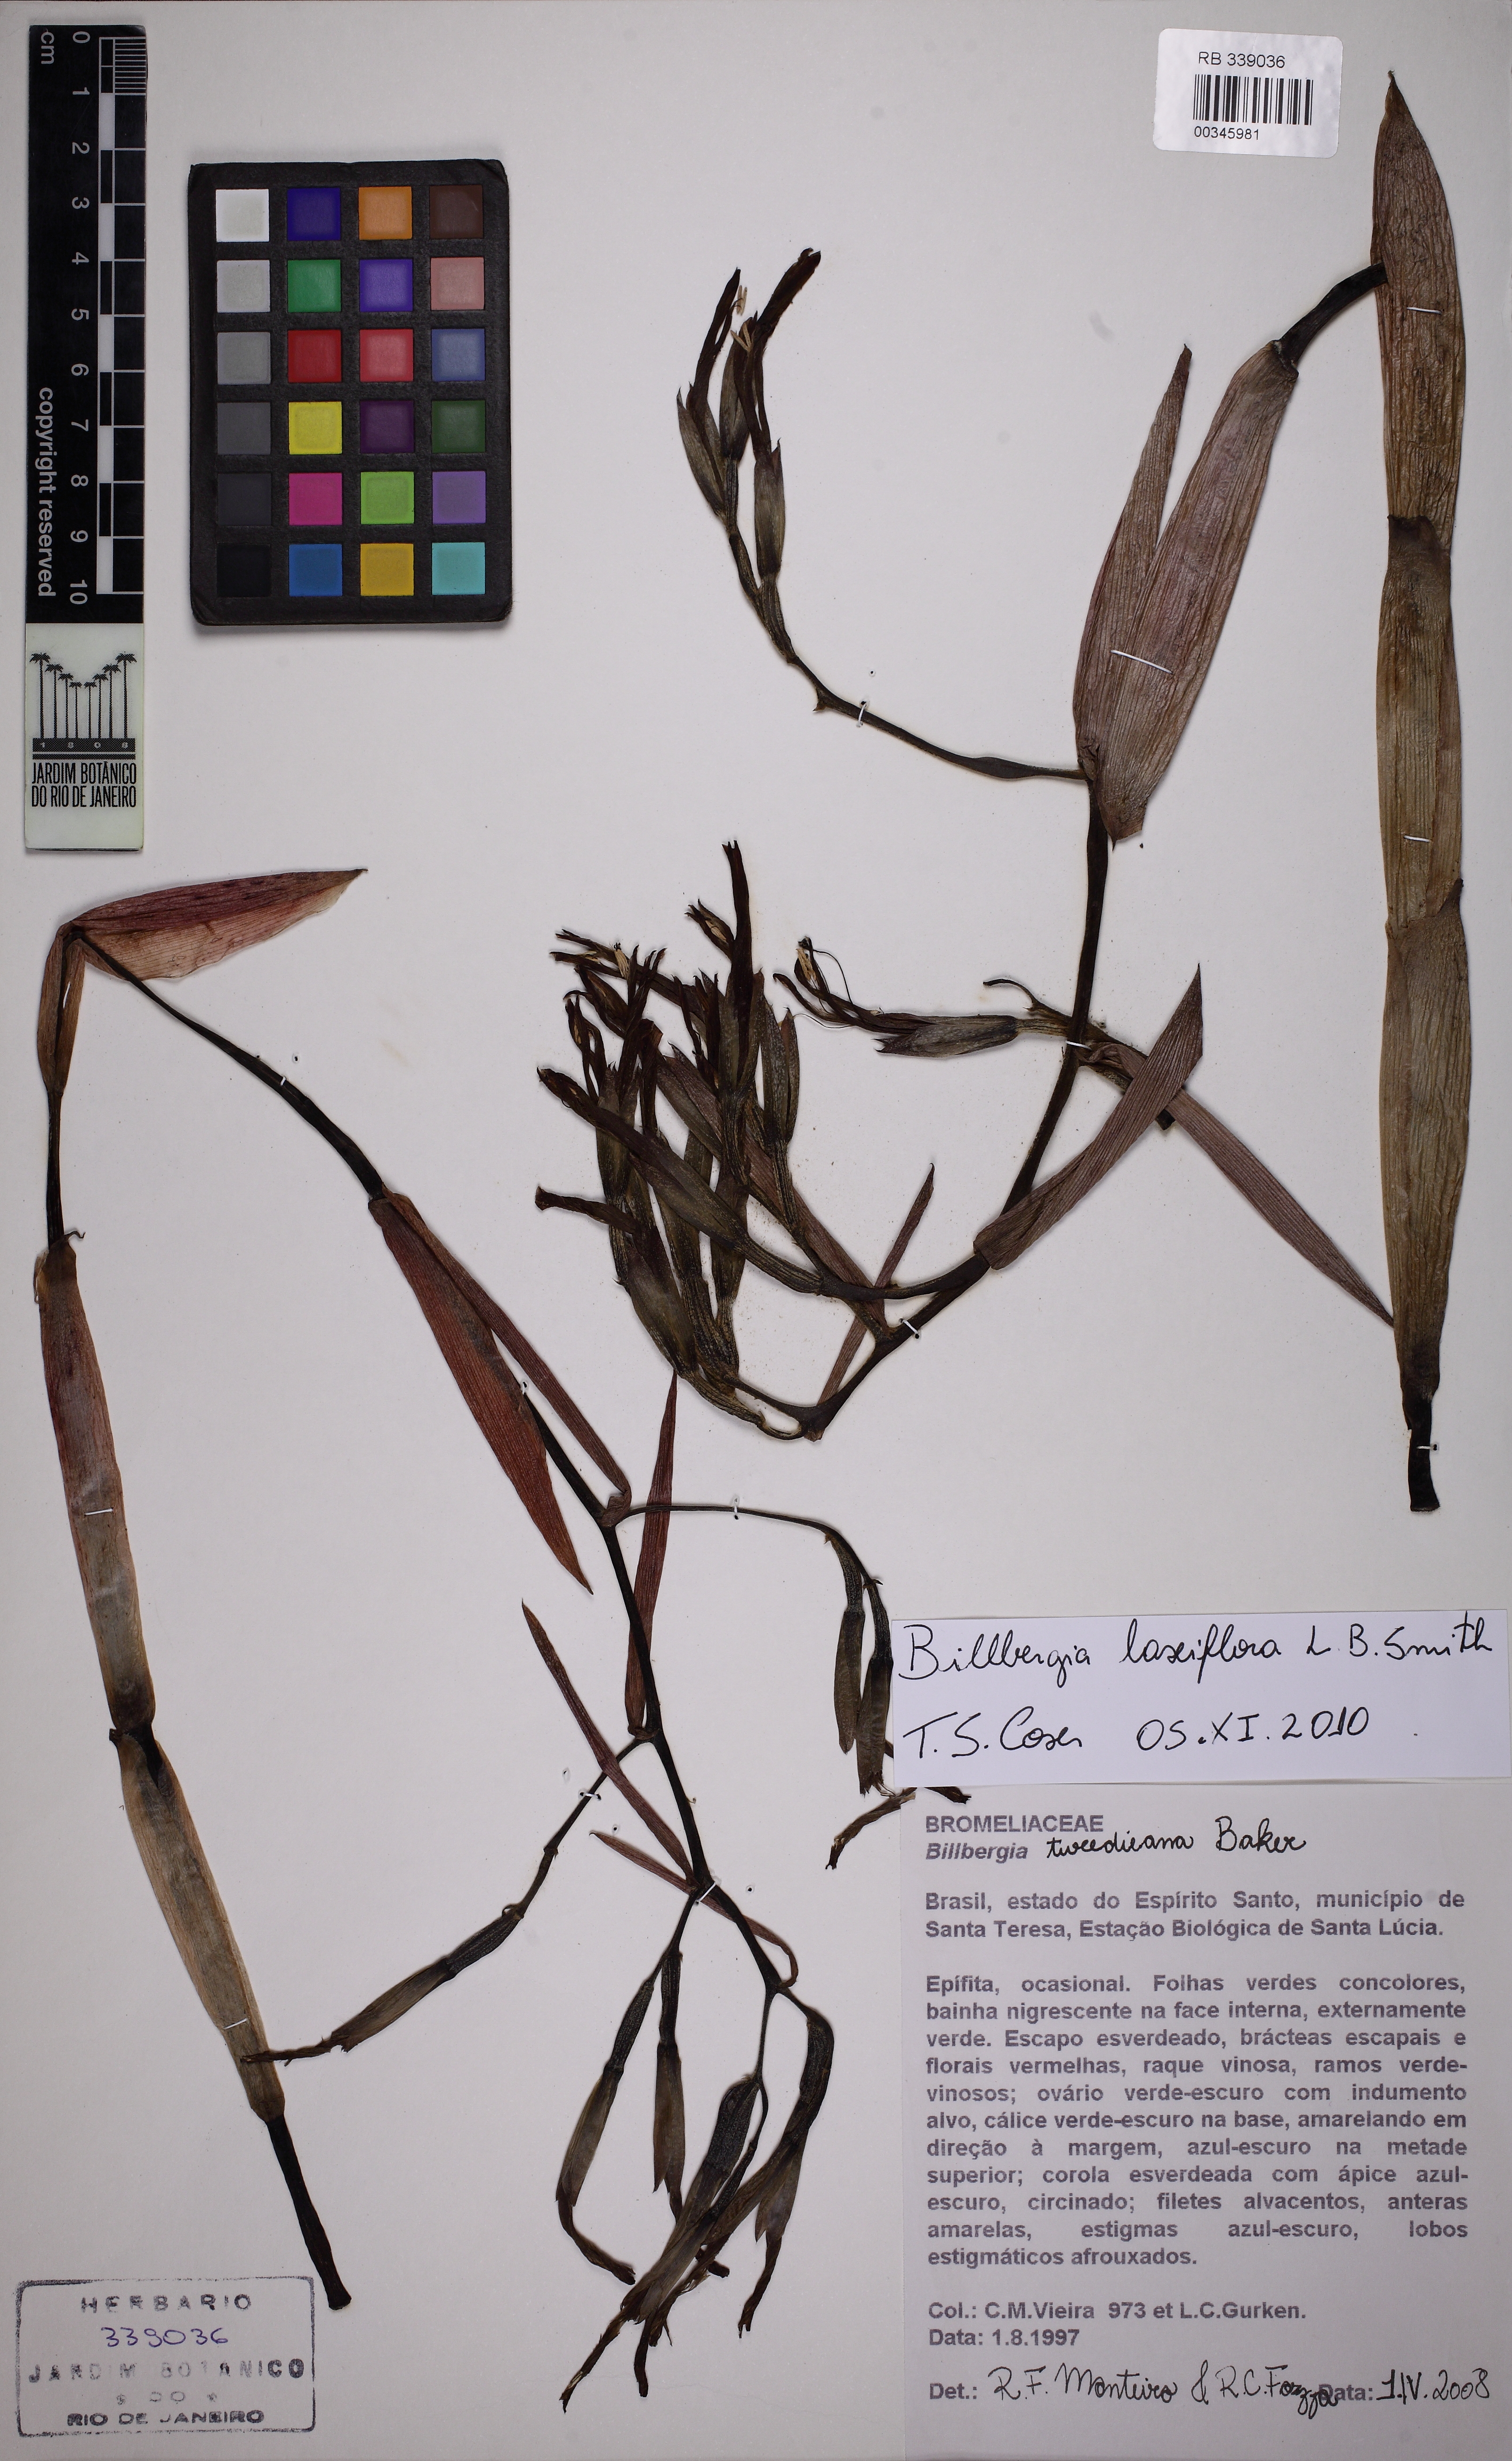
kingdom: Plantae
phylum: Tracheophyta
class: Liliopsida
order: Poales
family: Bromeliaceae
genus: Billbergia
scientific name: Billbergia laxiflora
